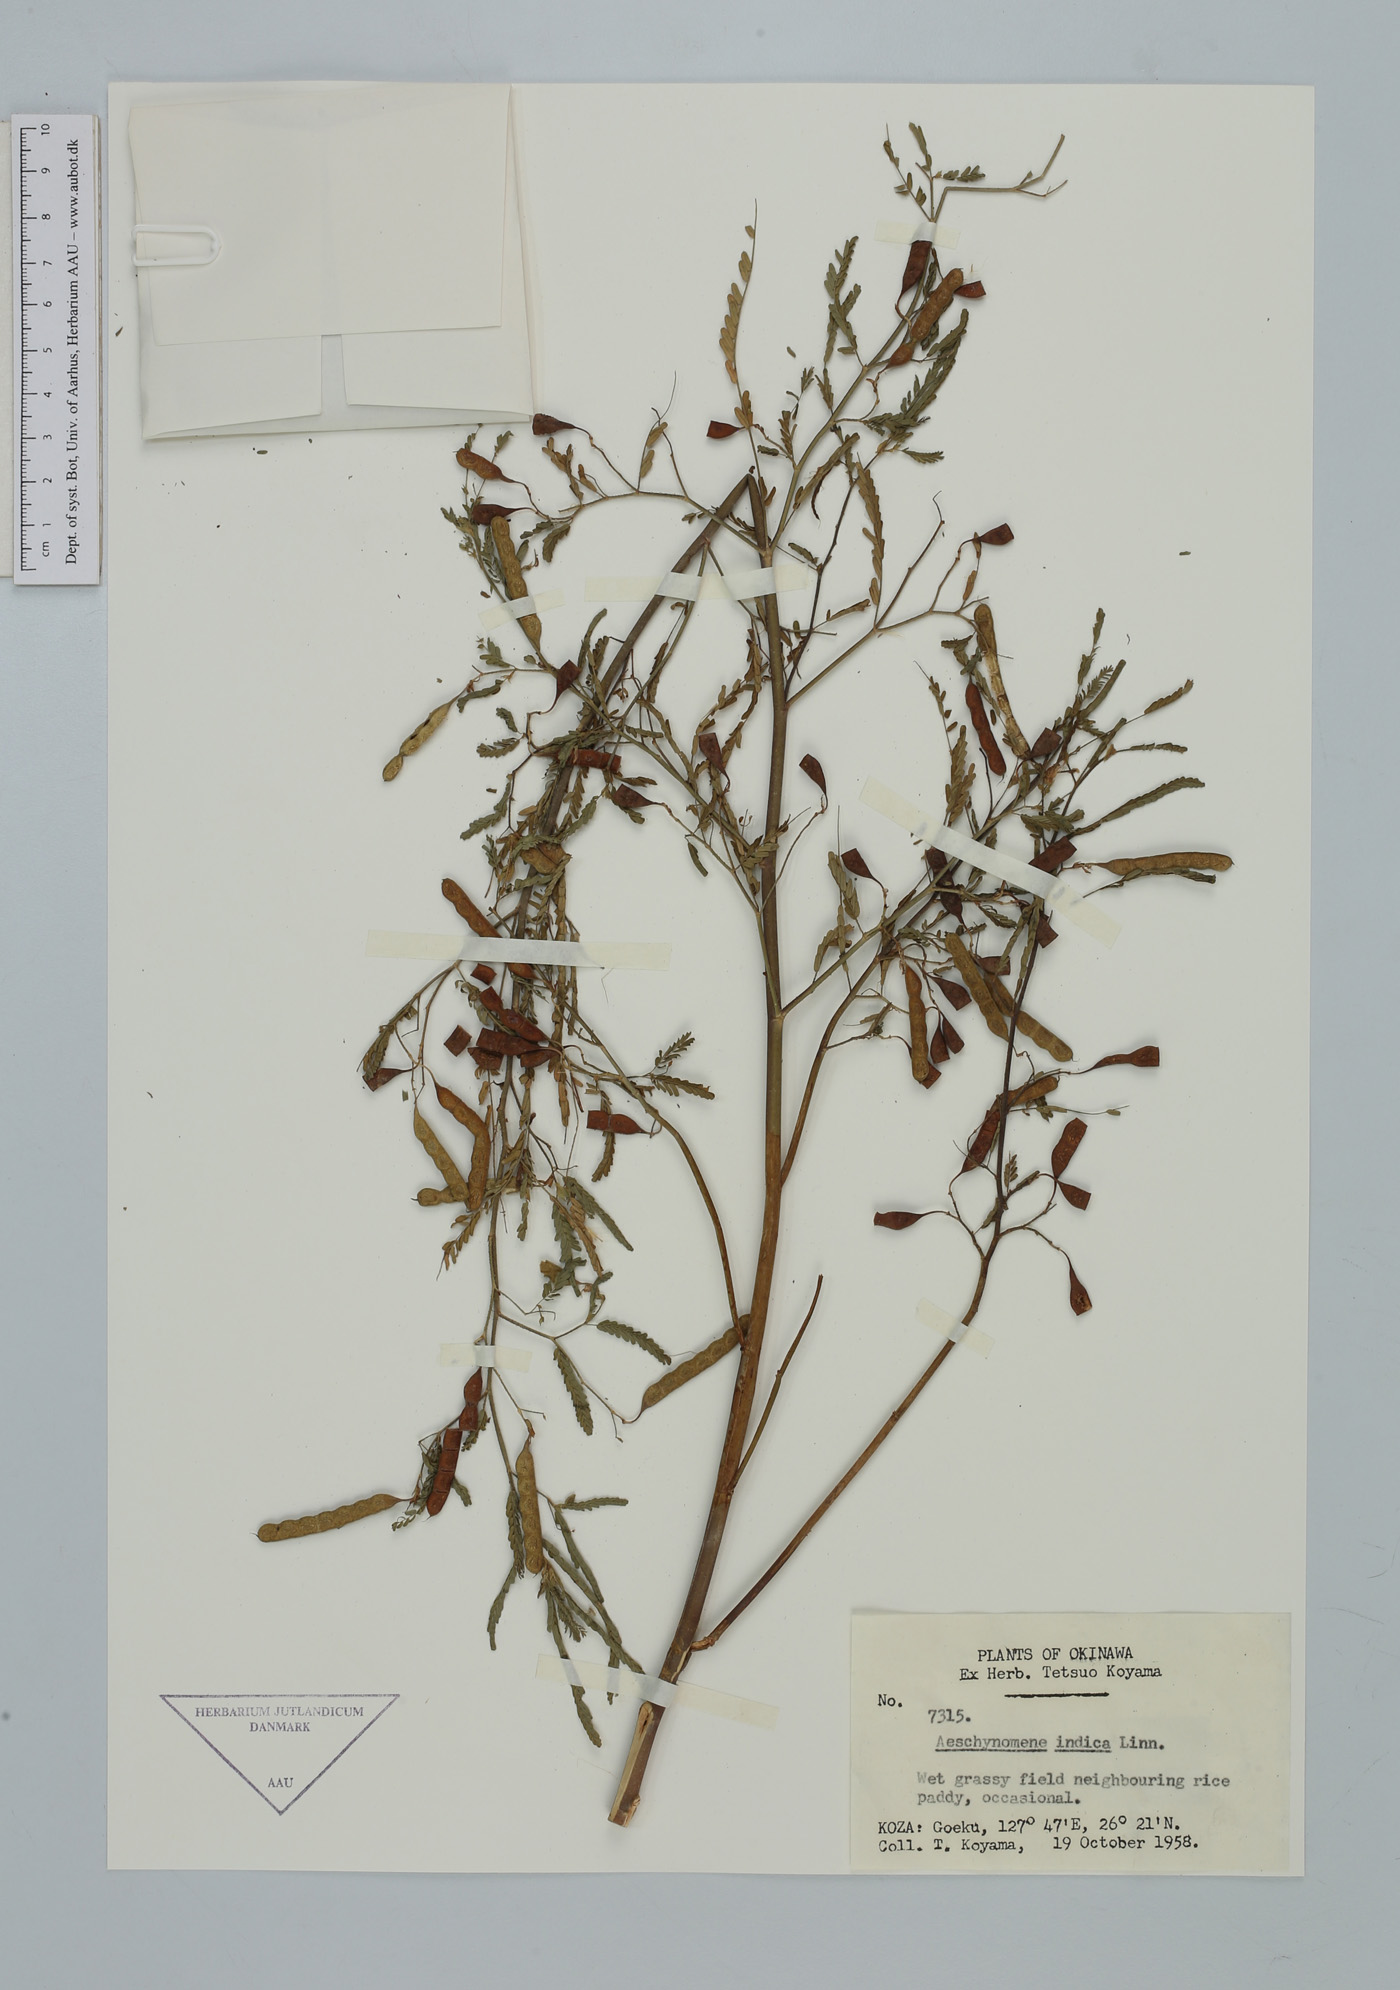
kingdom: Plantae
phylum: Tracheophyta
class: Magnoliopsida
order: Fabales
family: Fabaceae
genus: Aeschynomene
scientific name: Aeschynomene indica
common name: Indian jointvetch
